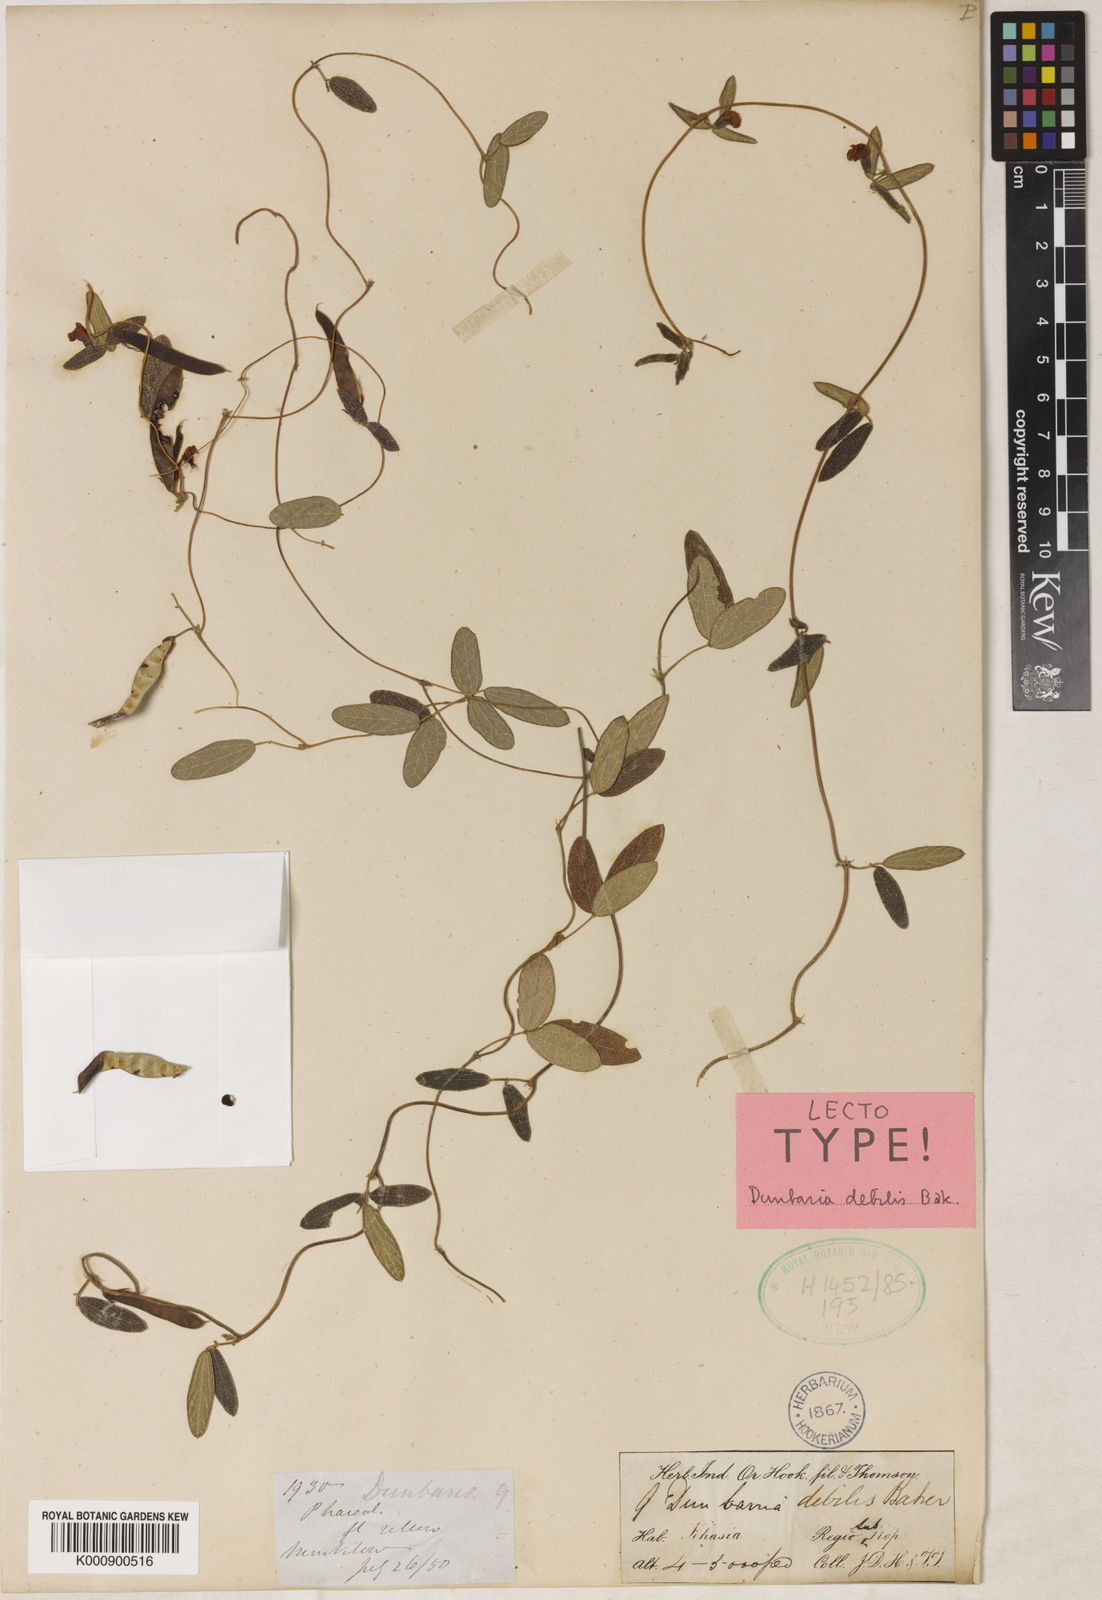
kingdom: Plantae
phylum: Tracheophyta
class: Magnoliopsida
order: Fabales
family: Fabaceae
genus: Dunbaria
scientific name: Dunbaria debilis
